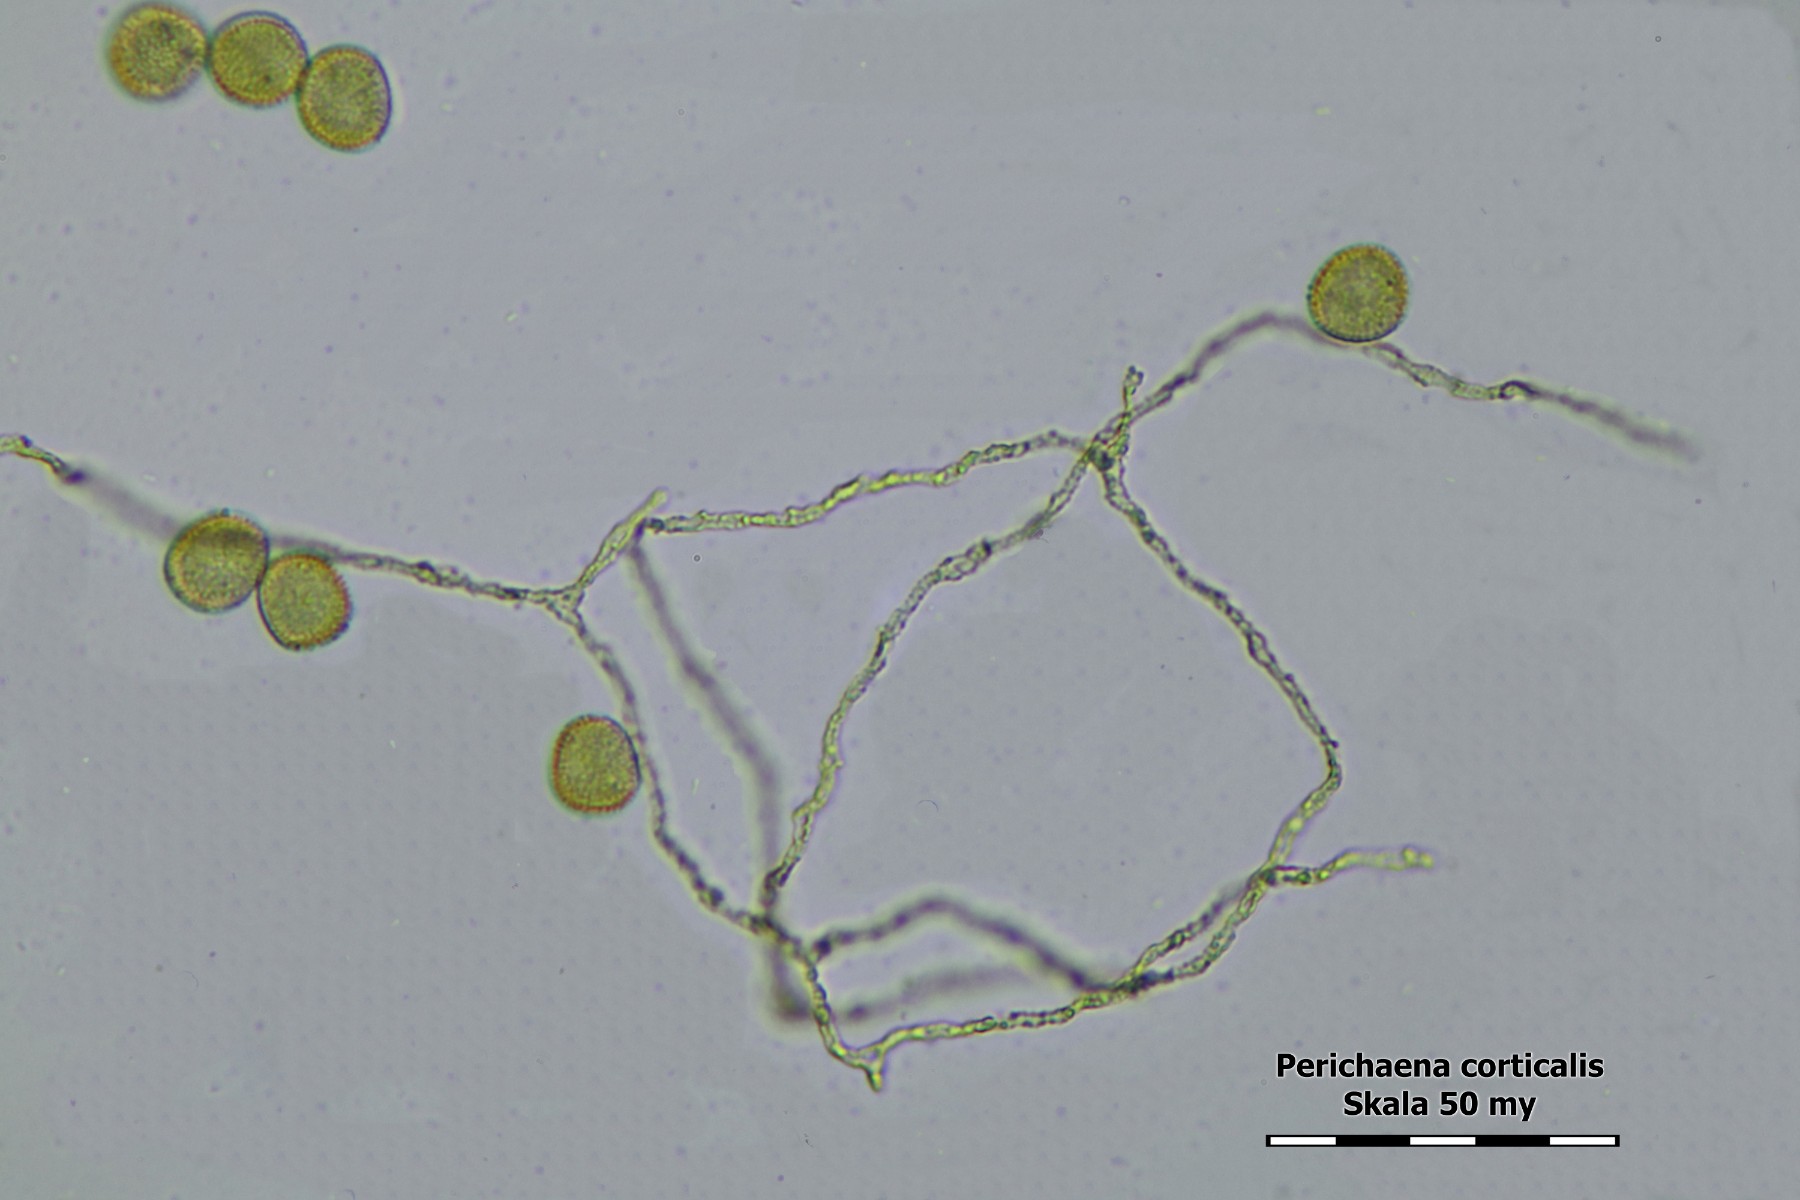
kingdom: Protozoa
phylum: Mycetozoa
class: Myxomycetes
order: Trichiales
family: Trichiaceae
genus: Perichaena
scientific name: Perichaena corticalis
